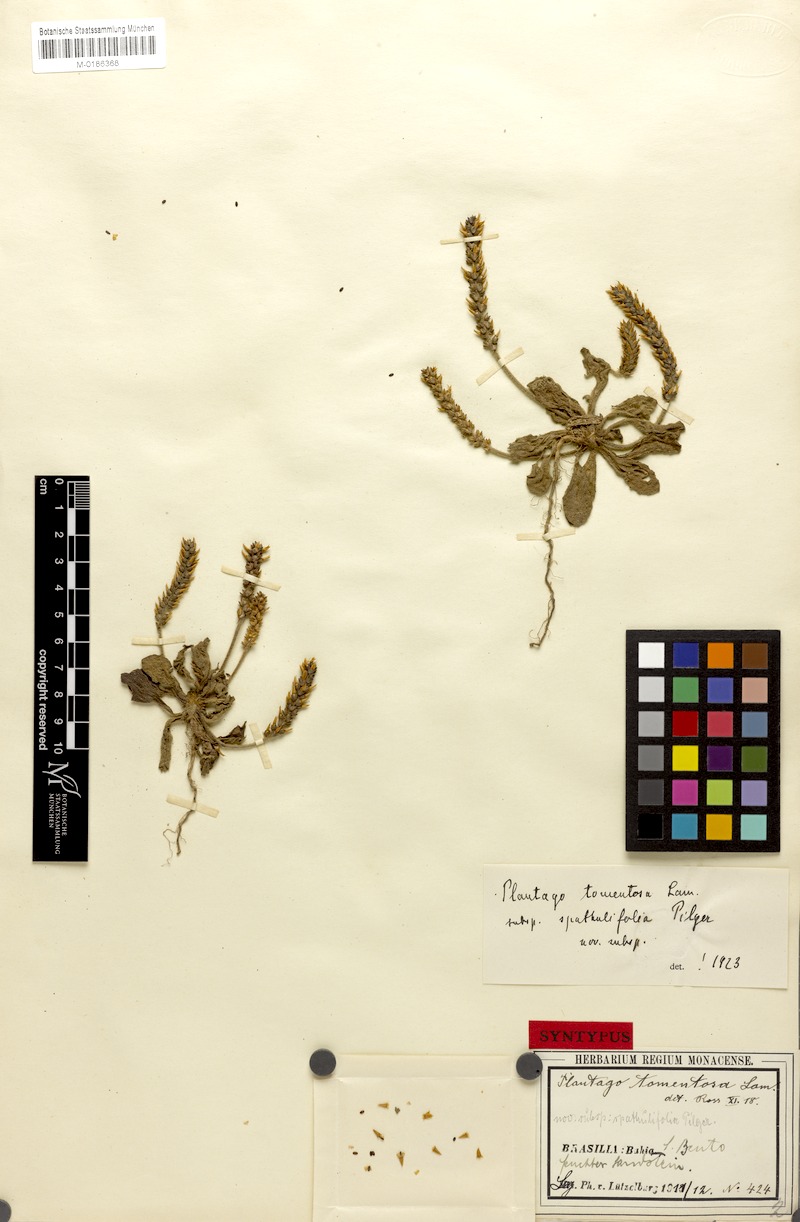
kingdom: Plantae
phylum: Tracheophyta
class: Magnoliopsida
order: Lamiales
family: Plantaginaceae
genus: Plantago
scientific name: Plantago catharinea
